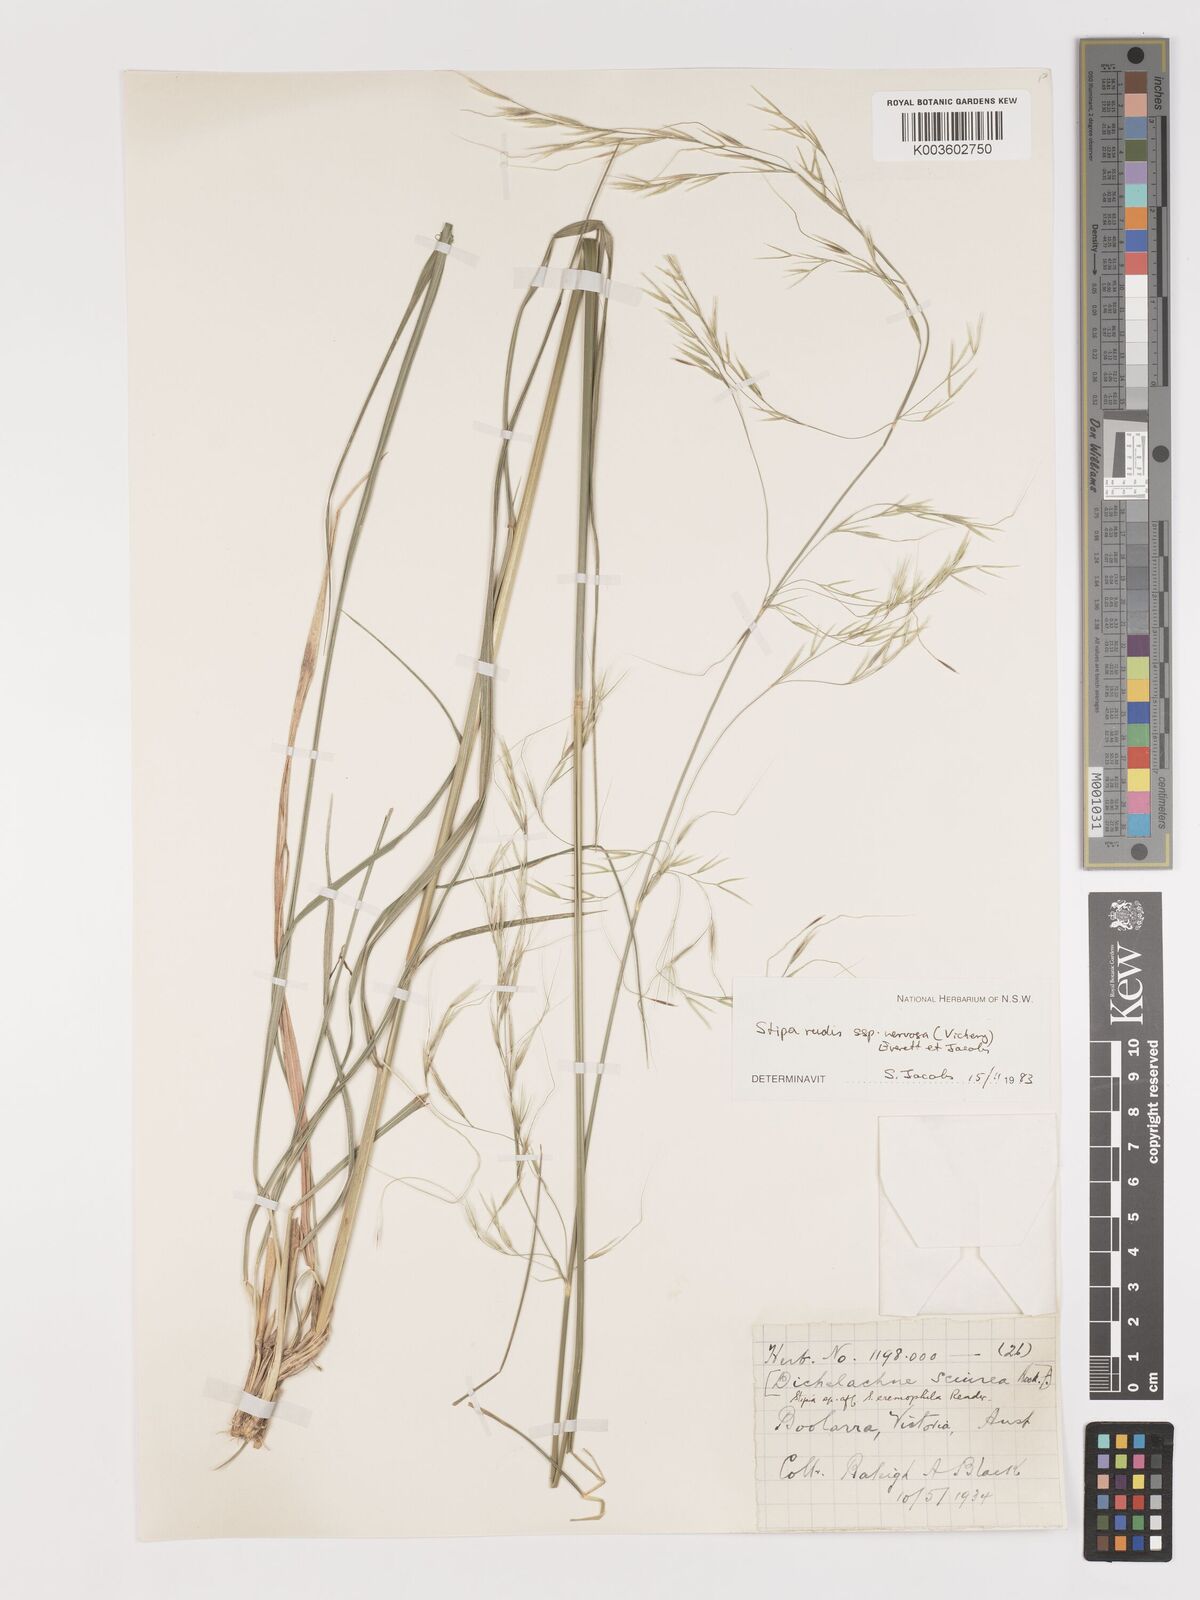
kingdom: Plantae
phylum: Tracheophyta
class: Liliopsida
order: Poales
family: Poaceae
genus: Austrostipa
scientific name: Austrostipa rudis
